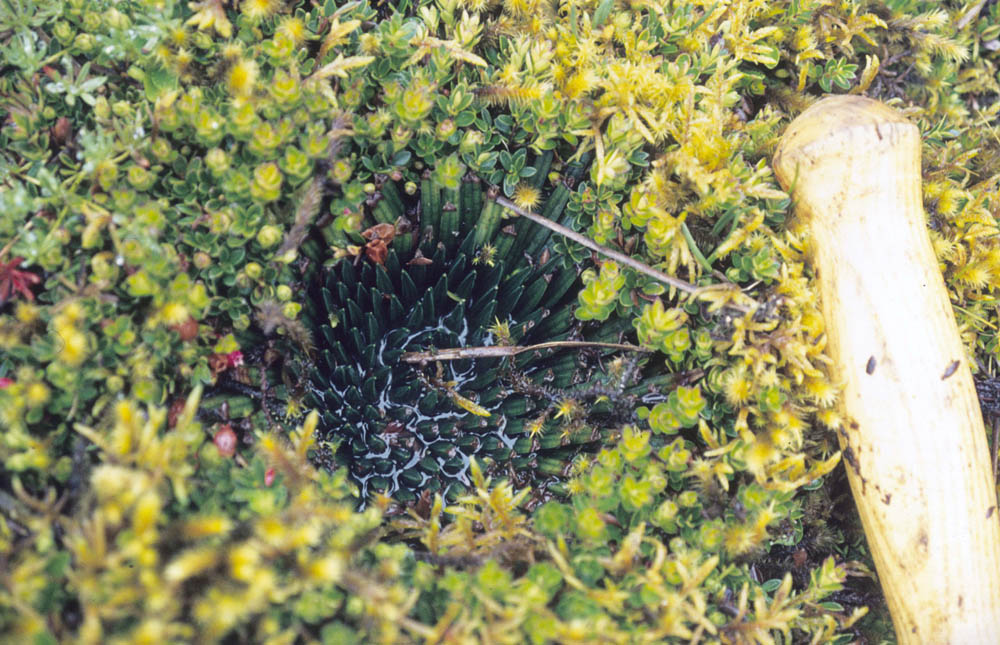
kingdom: Plantae
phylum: Tracheophyta
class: Lycopodiopsida
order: Isoetales
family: Isoetaceae
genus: Isoetes
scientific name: Isoetes andina
